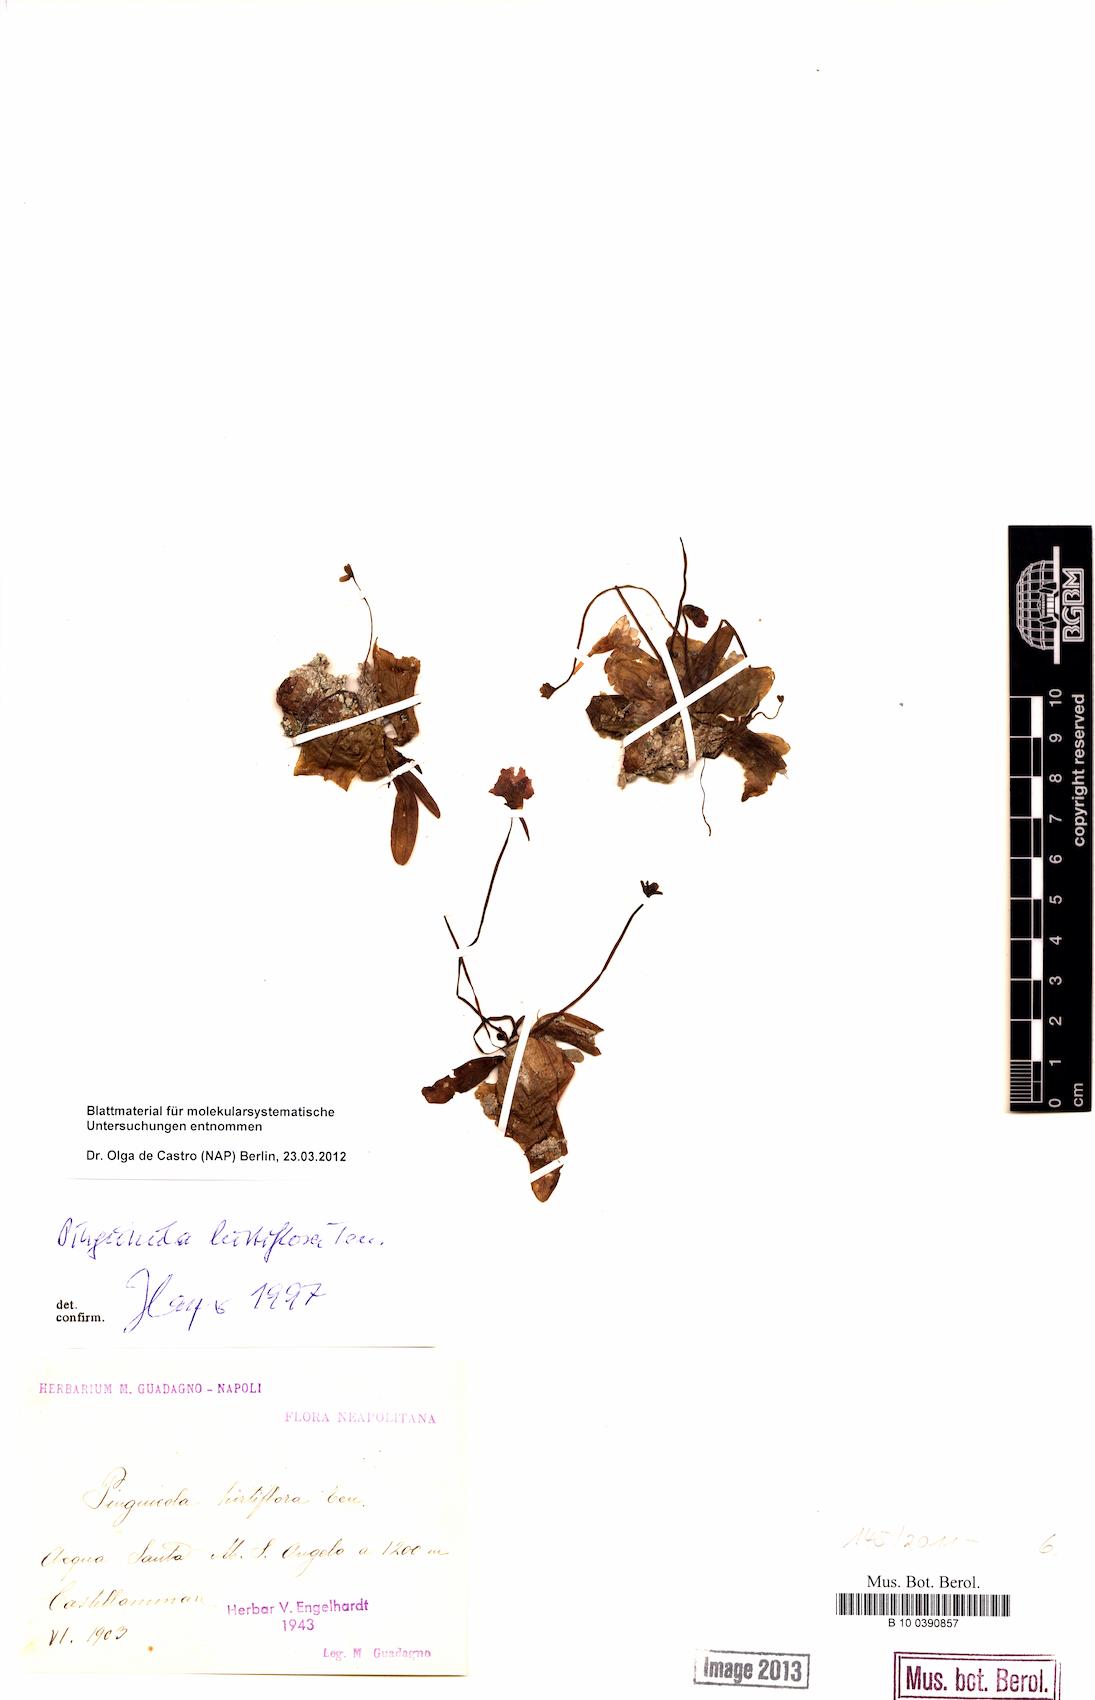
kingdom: Plantae
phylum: Tracheophyta
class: Magnoliopsida
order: Lamiales
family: Lentibulariaceae
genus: Pinguicula
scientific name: Pinguicula crystallina
